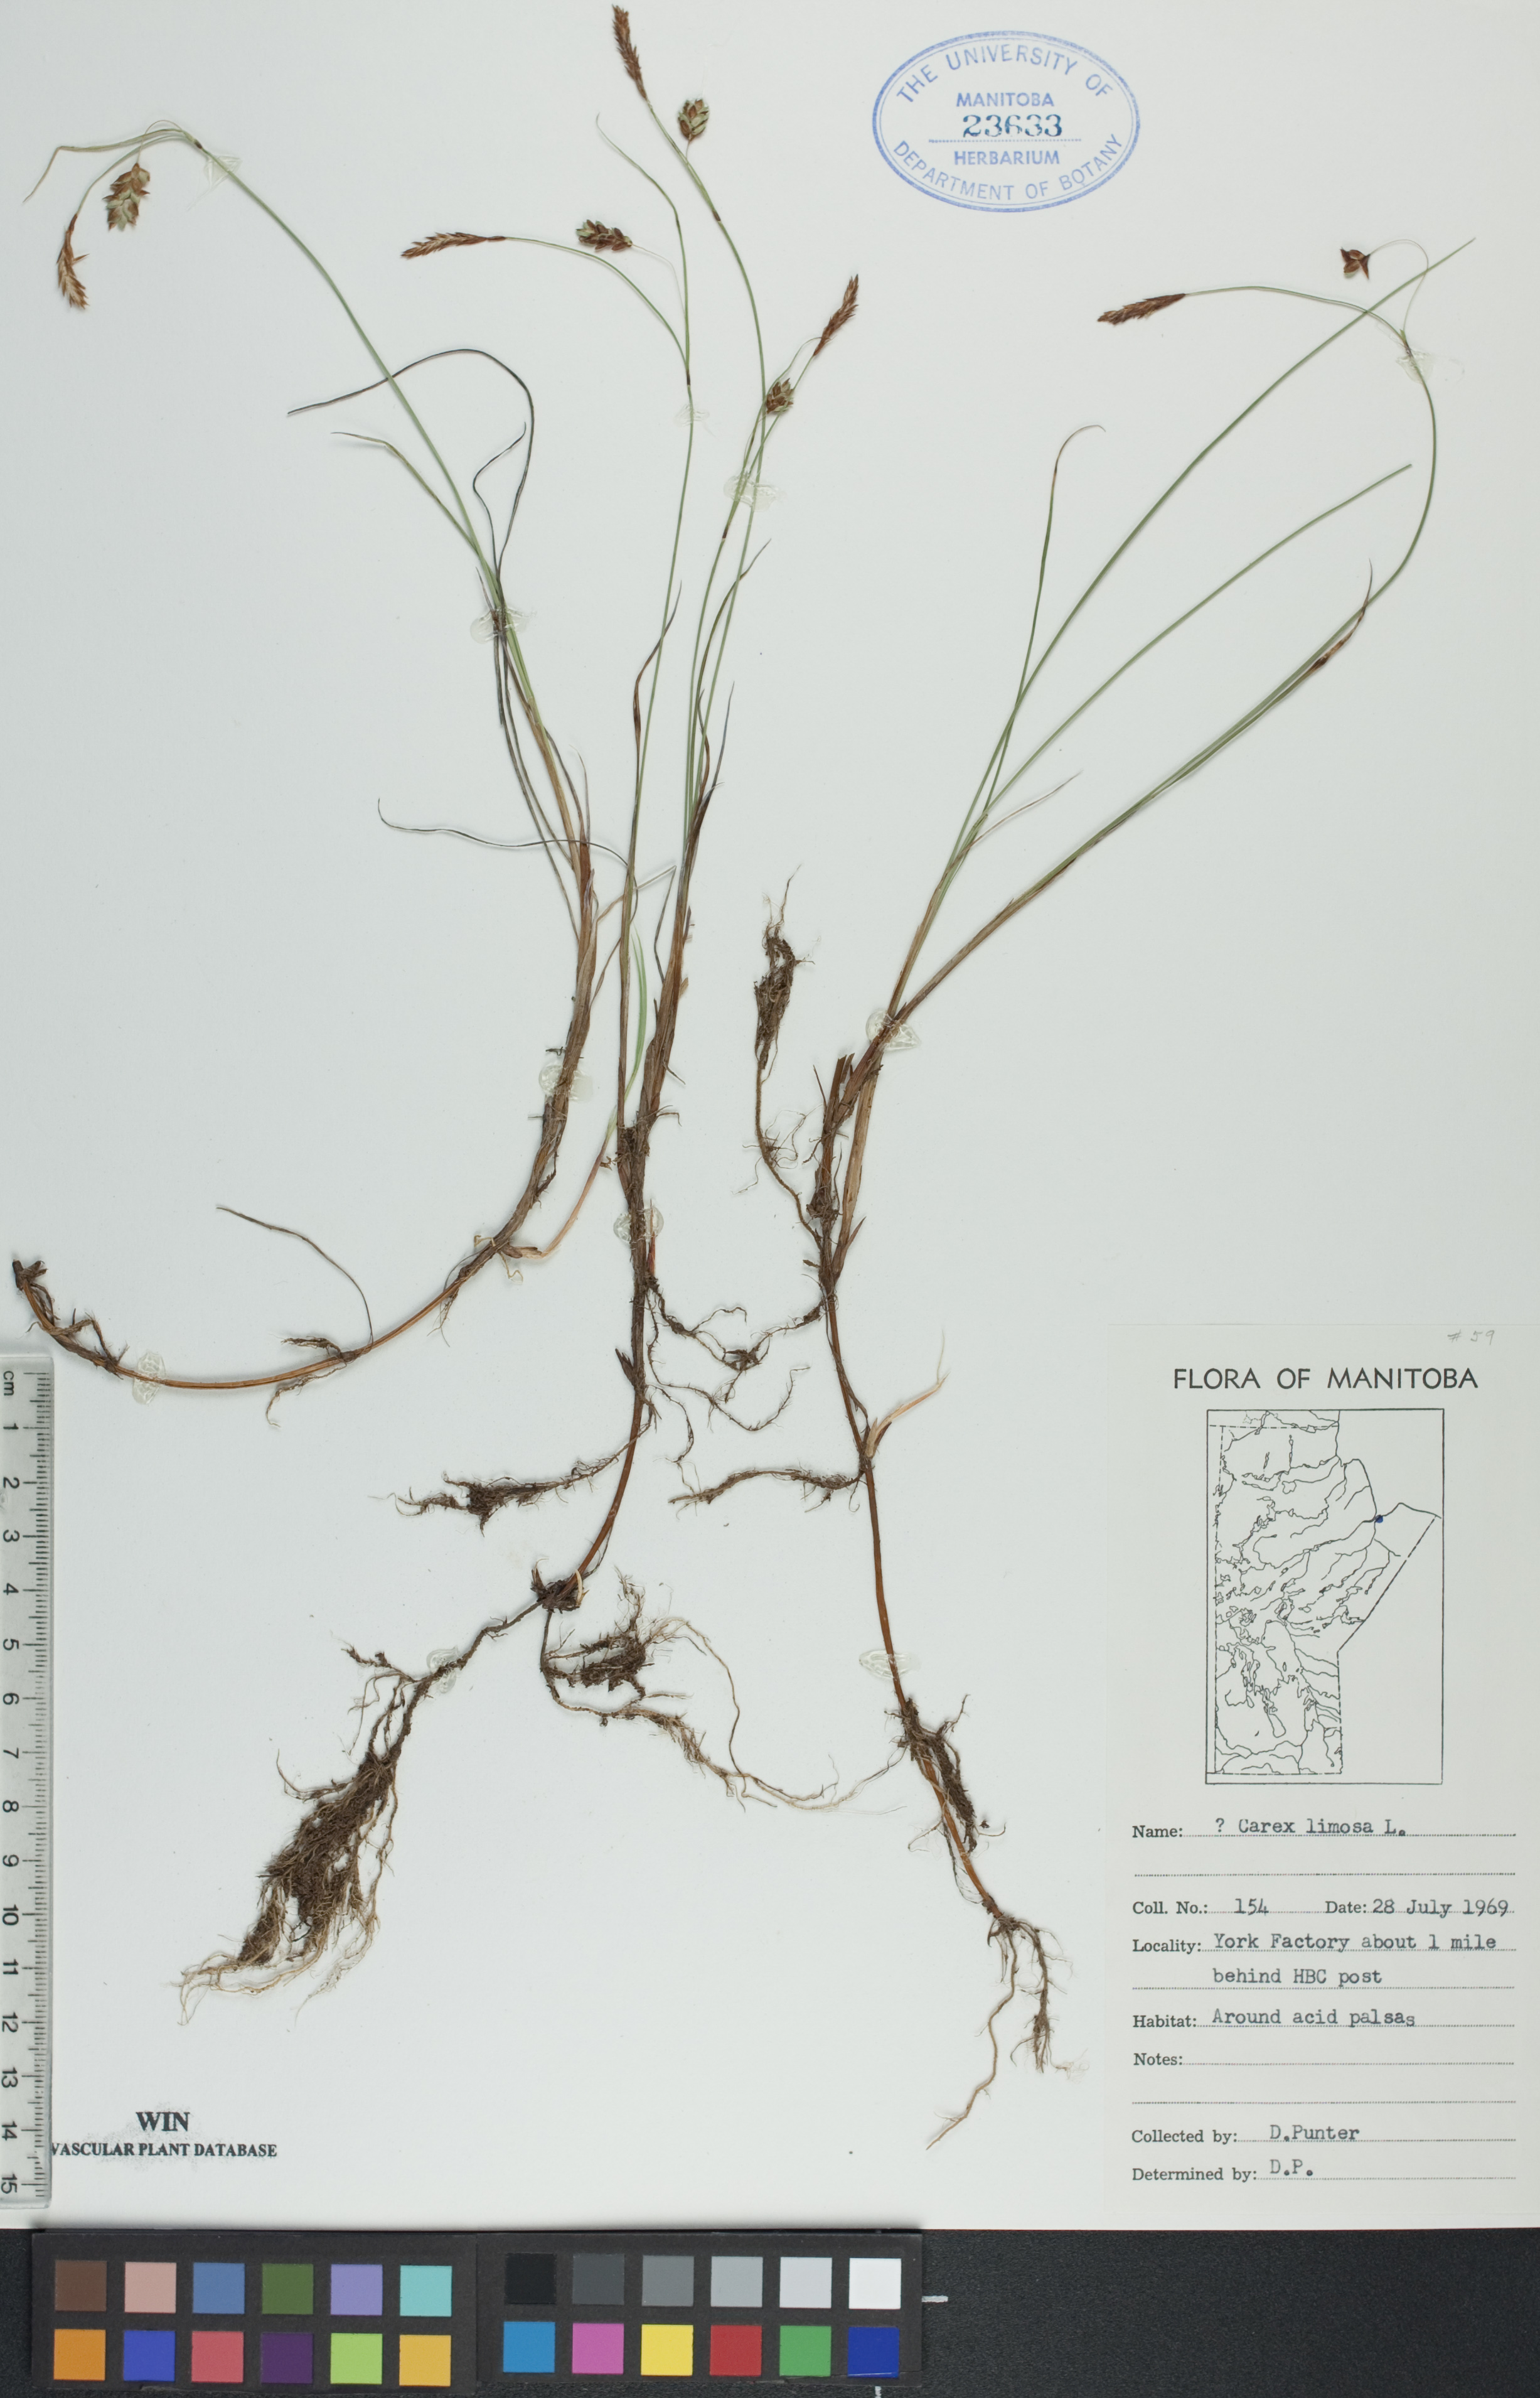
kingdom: Plantae
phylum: Tracheophyta
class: Liliopsida
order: Poales
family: Cyperaceae
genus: Carex
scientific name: Carex limosa
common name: Bog sedge
